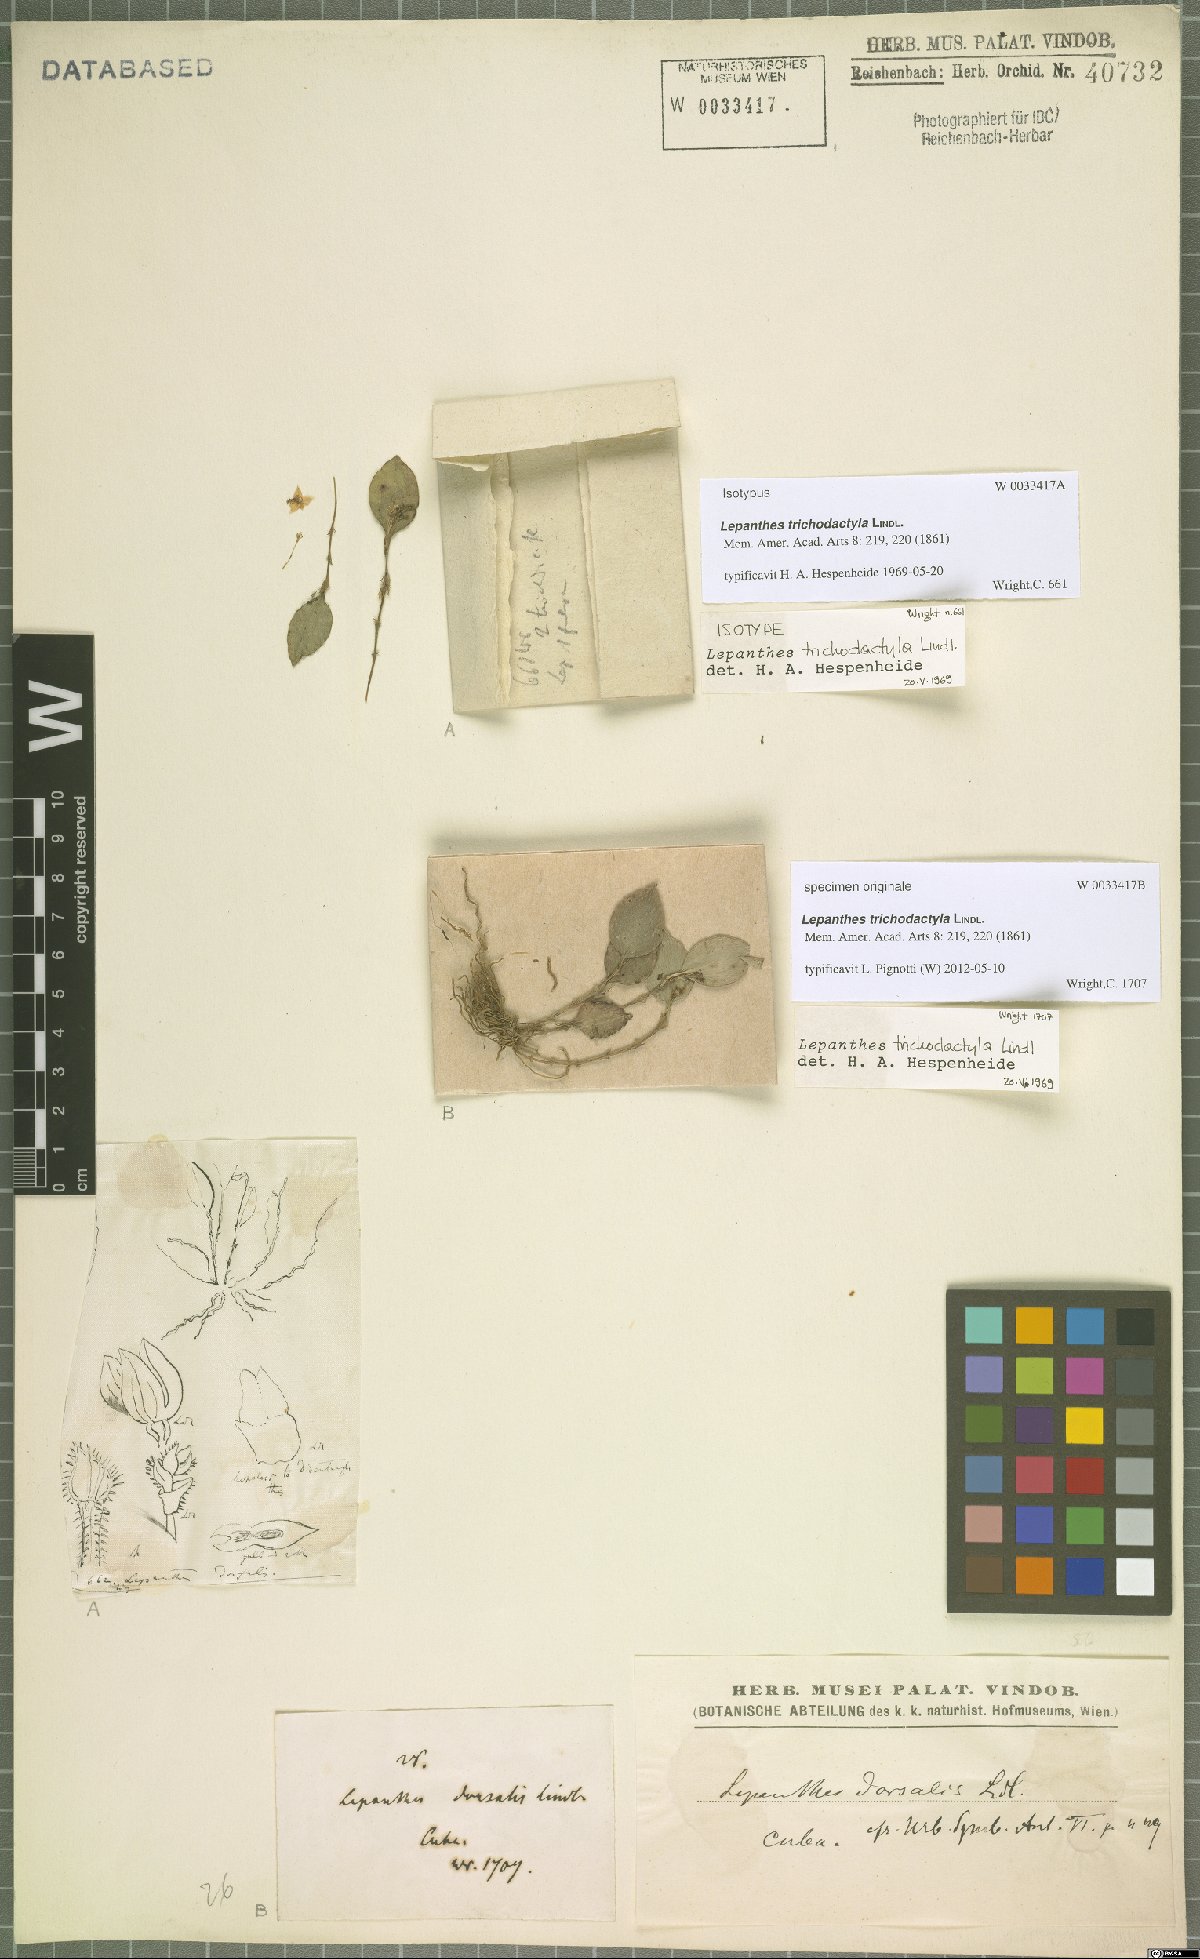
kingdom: Plantae
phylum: Tracheophyta
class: Liliopsida
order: Asparagales
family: Orchidaceae
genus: Lepanthes
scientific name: Lepanthes trichodactyla
